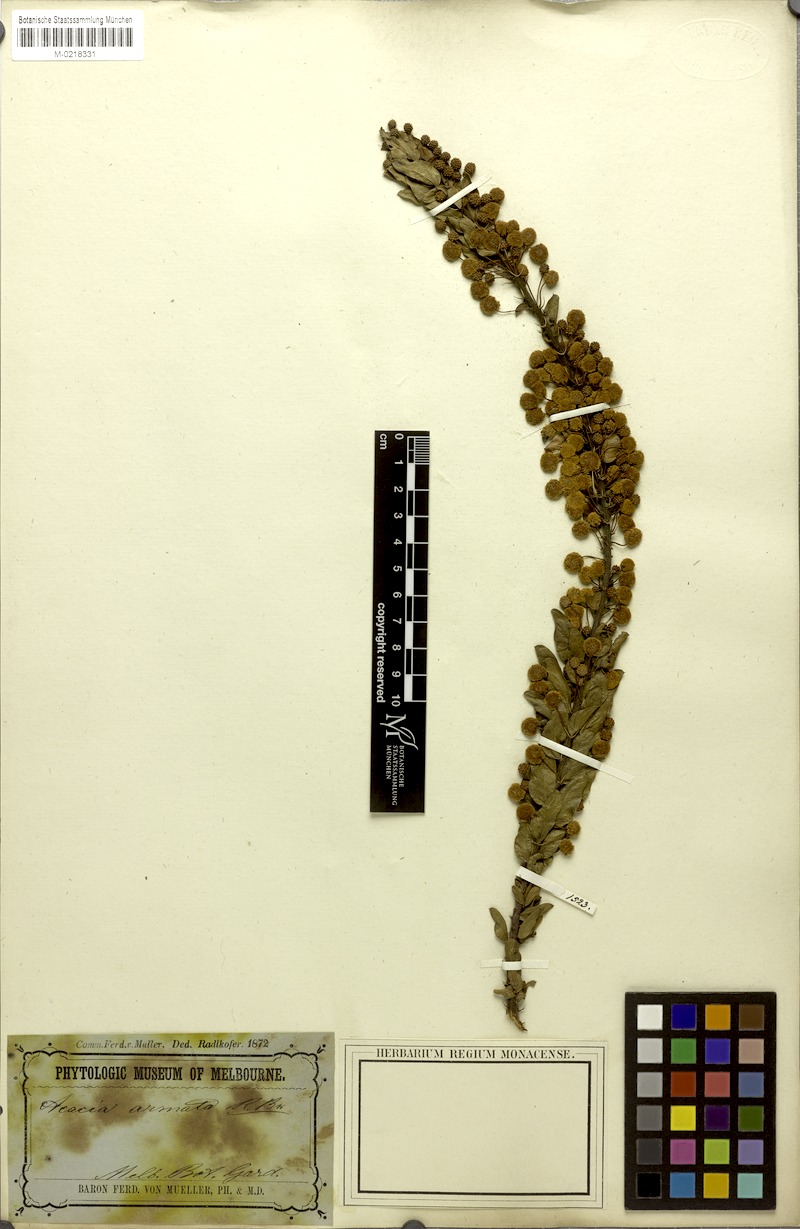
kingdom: Plantae
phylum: Tracheophyta
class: Magnoliopsida
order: Fabales
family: Fabaceae
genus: Acacia
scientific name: Acacia paradoxa
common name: Paradox acacia
